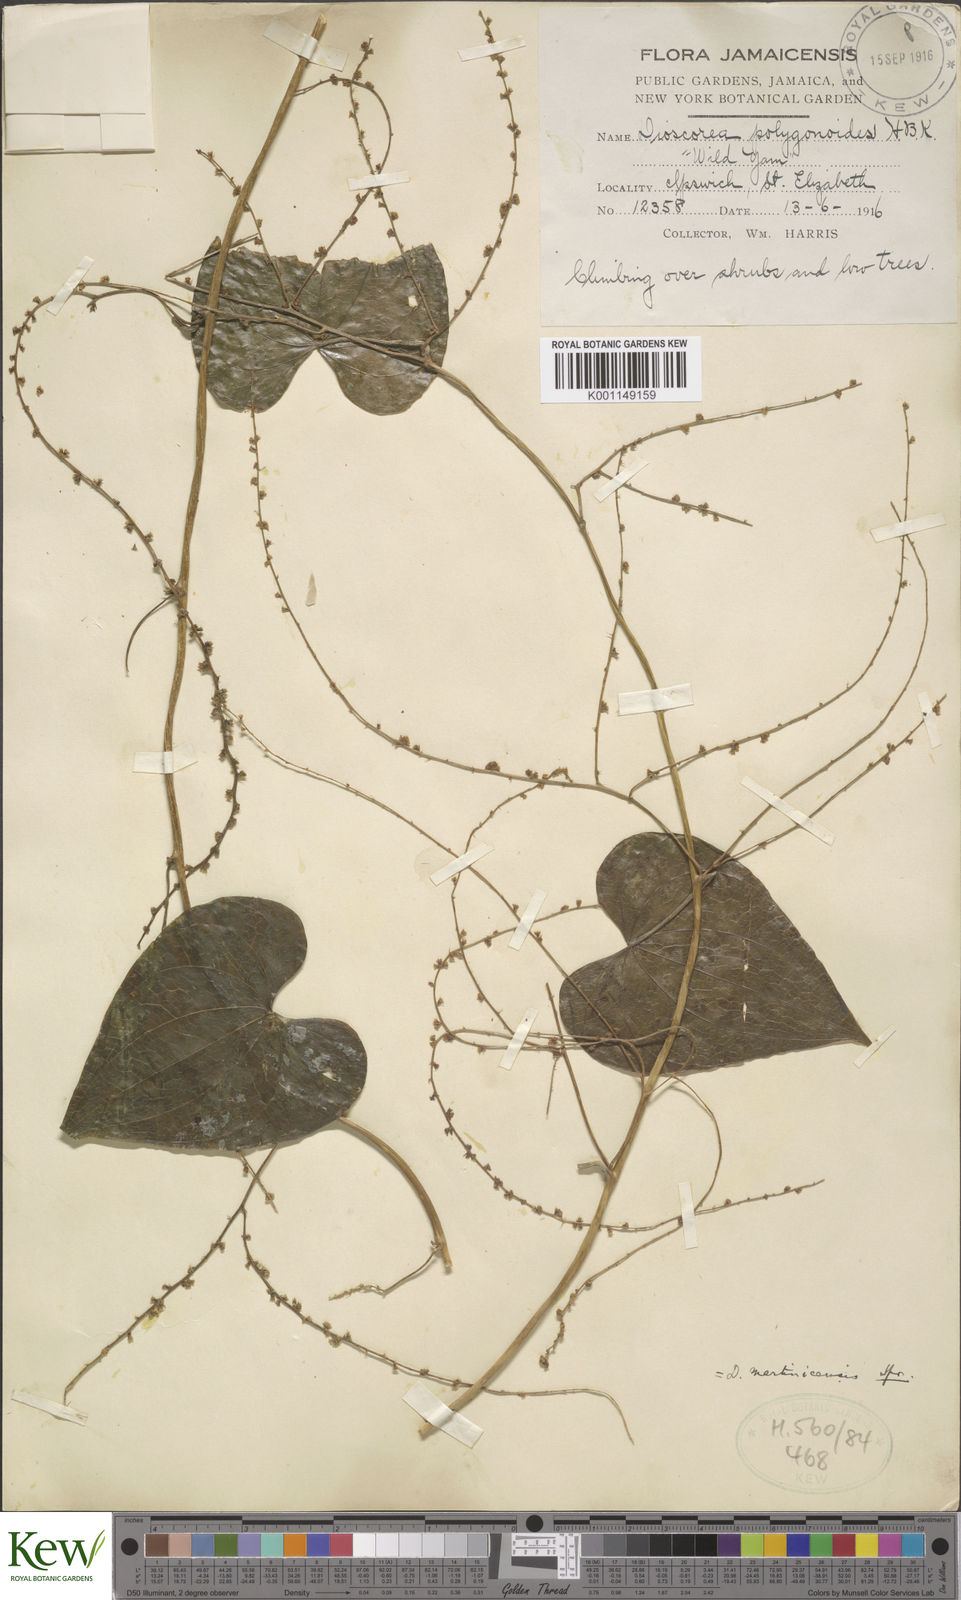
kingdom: Plantae
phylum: Tracheophyta
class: Liliopsida
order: Dioscoreales
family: Dioscoreaceae
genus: Dioscorea
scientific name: Dioscorea polygonoides
